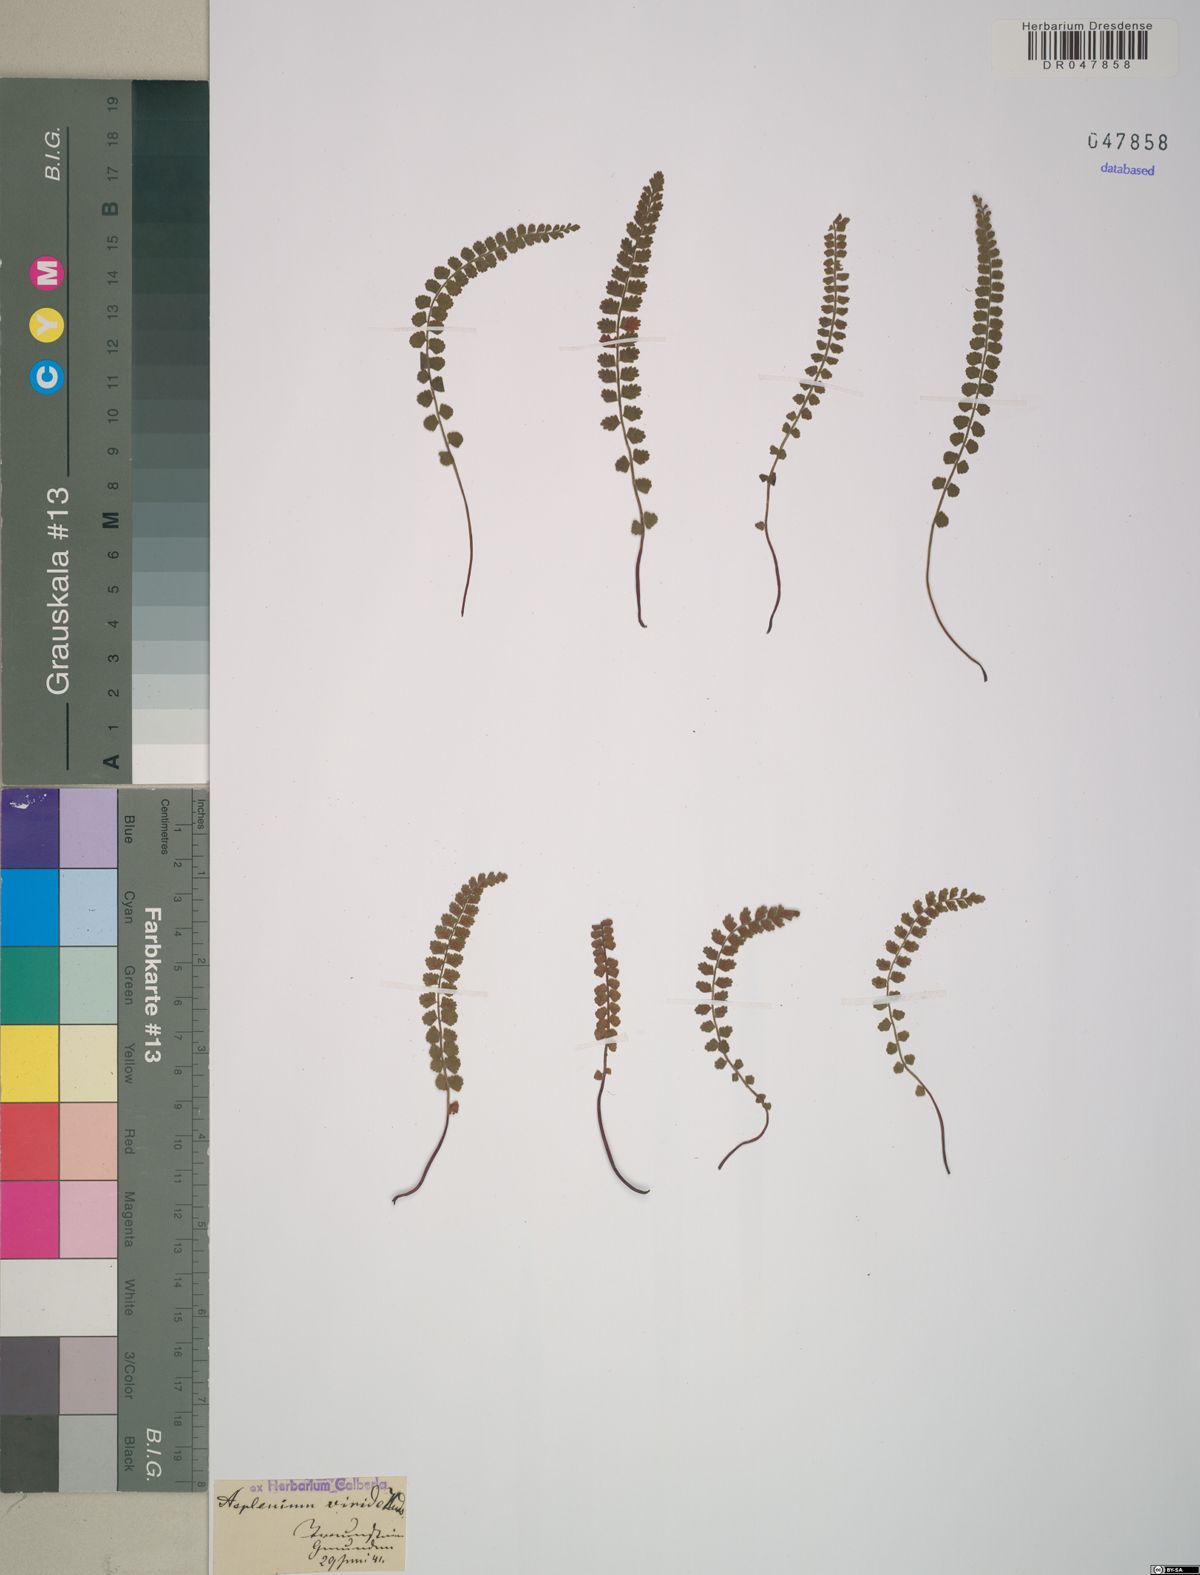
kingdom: Plantae
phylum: Tracheophyta
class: Polypodiopsida
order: Polypodiales
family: Aspleniaceae
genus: Asplenium
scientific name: Asplenium viride
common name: Green spleenwort
